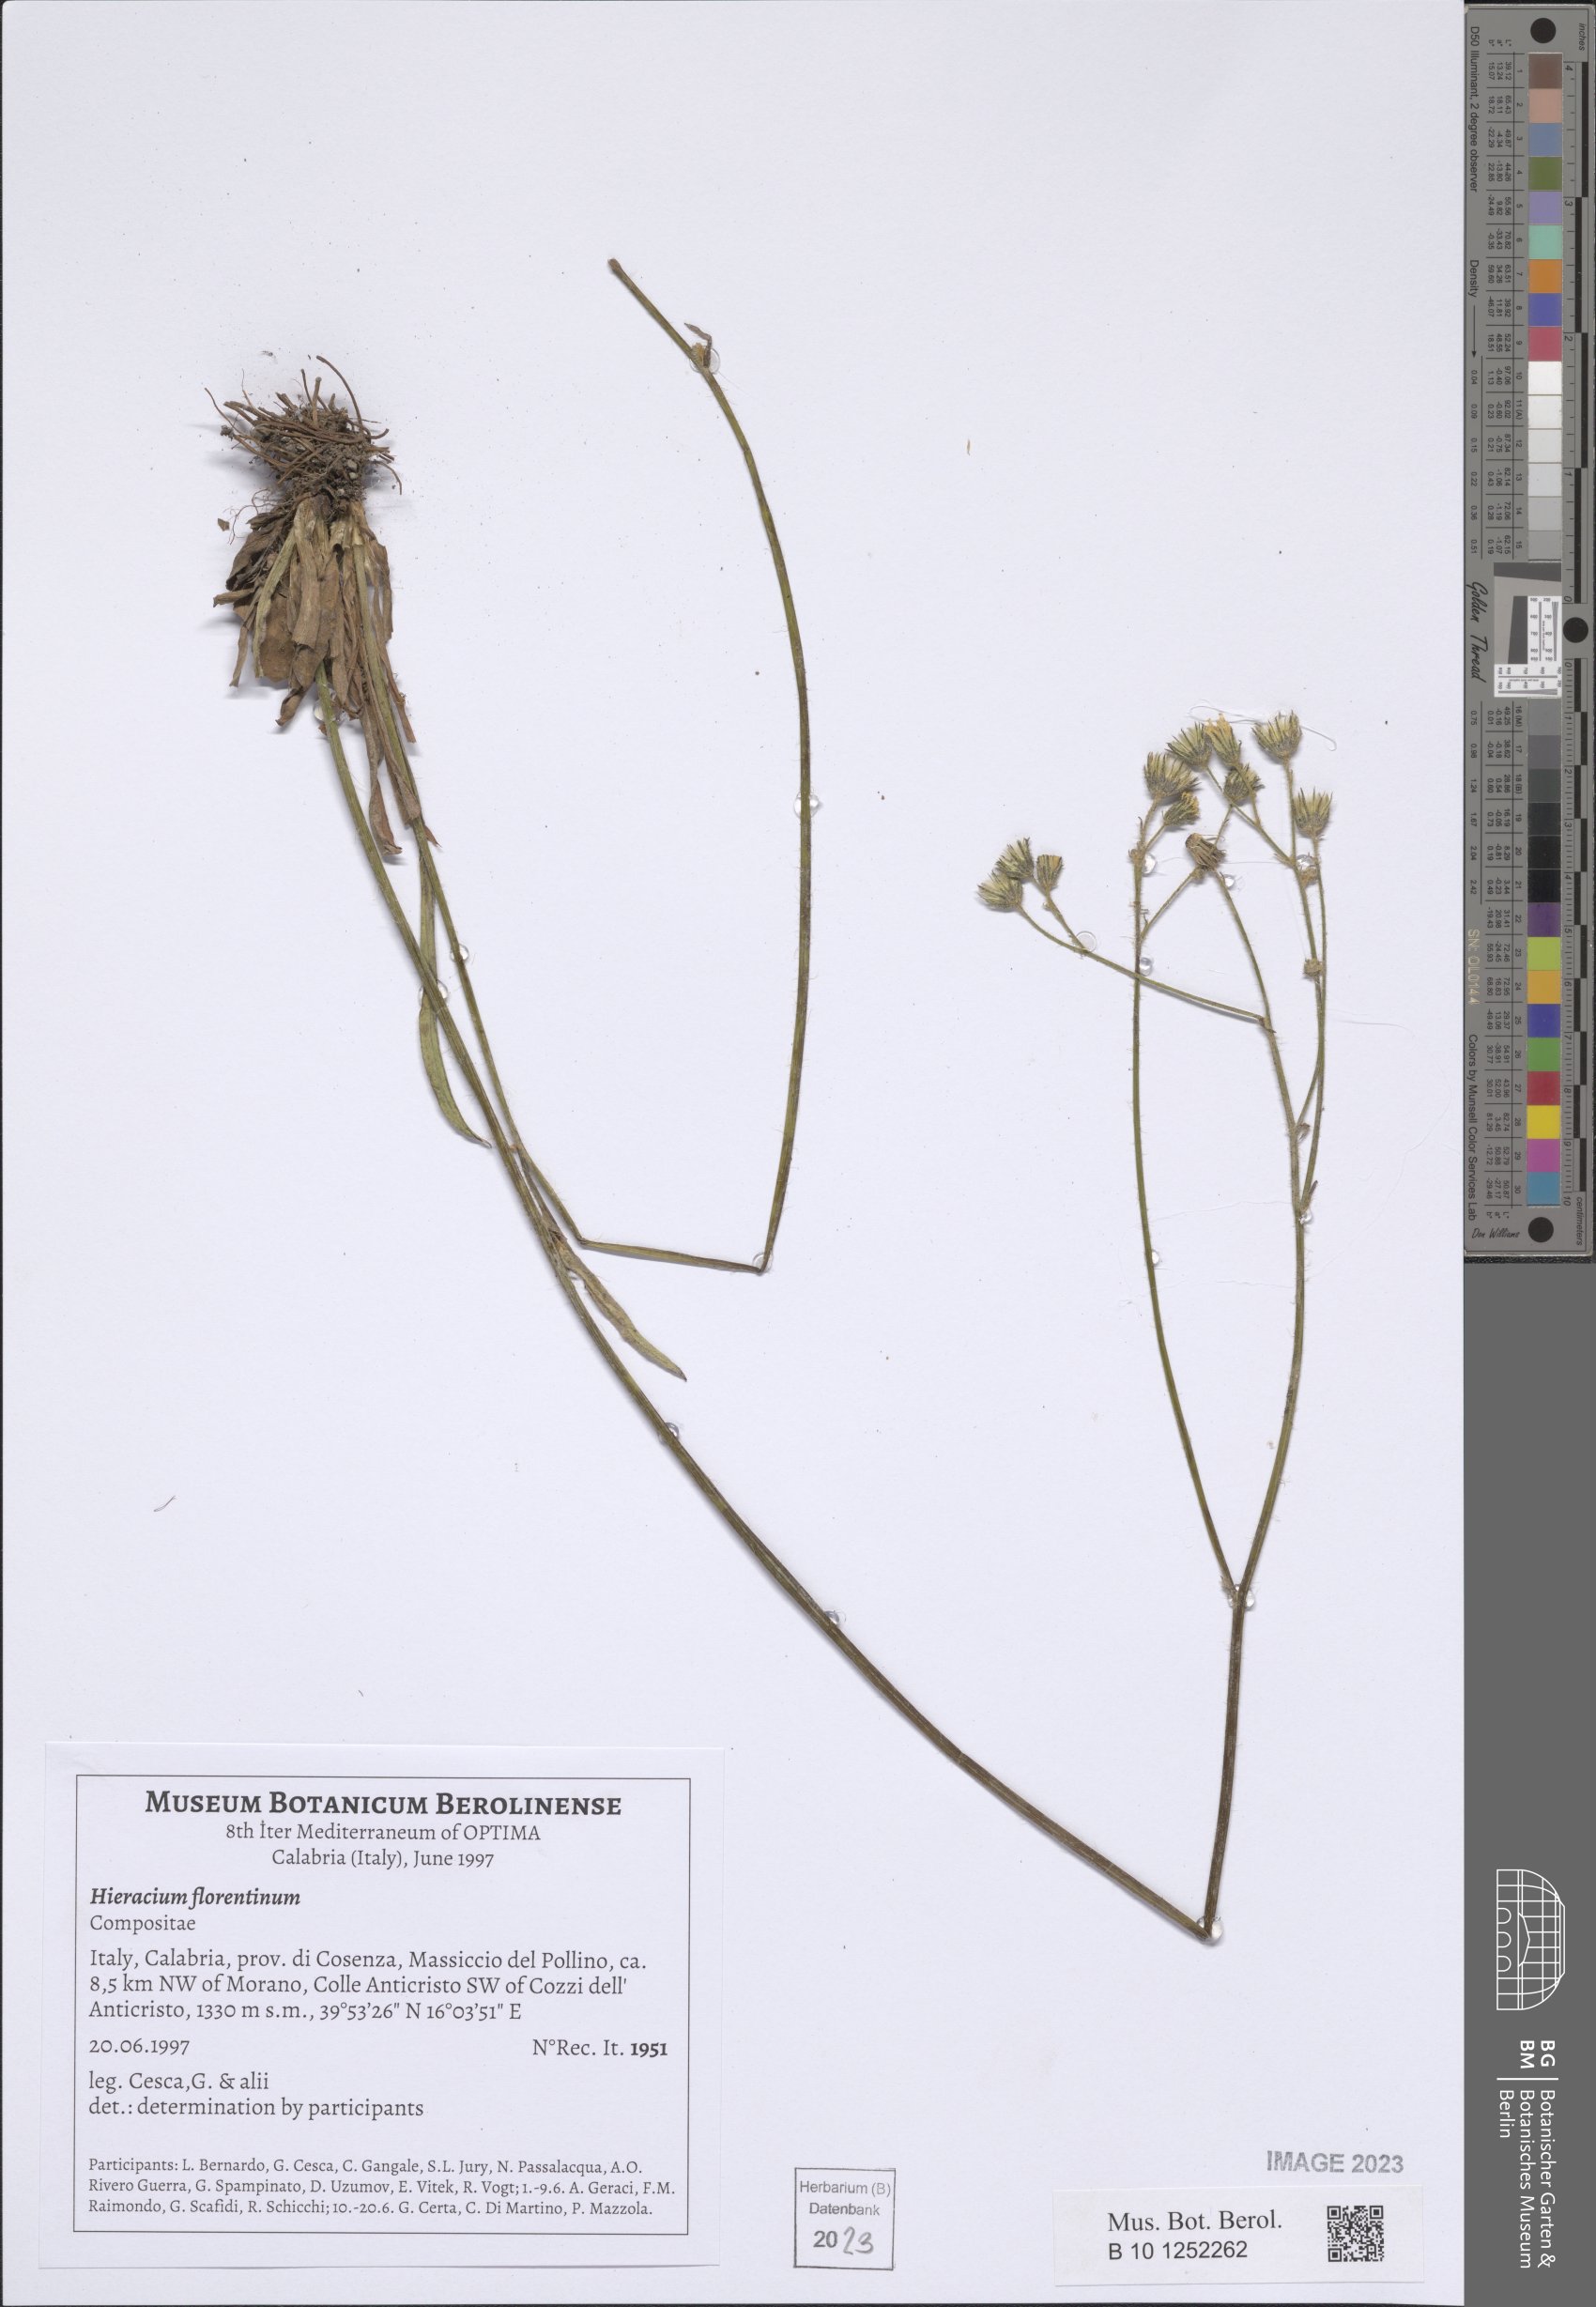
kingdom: Plantae
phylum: Tracheophyta
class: Magnoliopsida
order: Asterales
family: Asteraceae
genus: Pilosella
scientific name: Pilosella piloselloides
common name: Glaucous king-devil
